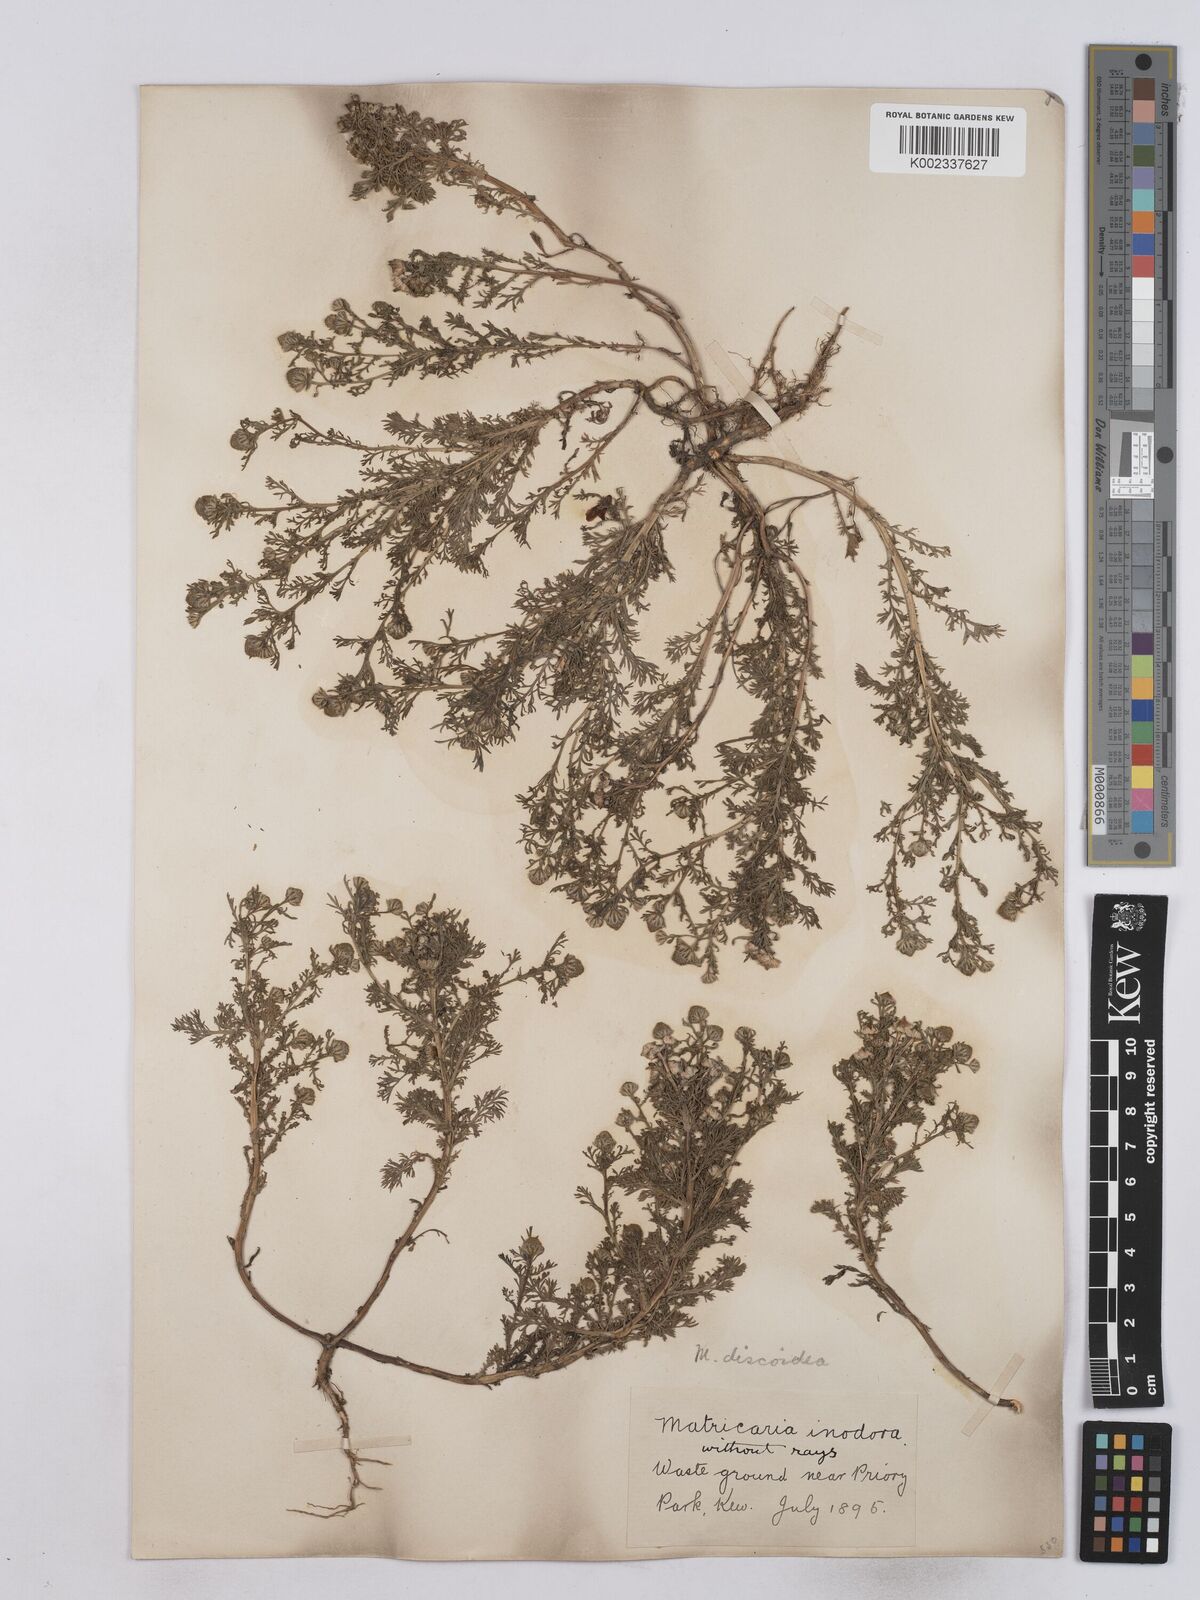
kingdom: Plantae
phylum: Tracheophyta
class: Magnoliopsida
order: Asterales
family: Asteraceae
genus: Matricaria
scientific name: Matricaria discoidea
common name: Disc mayweed
